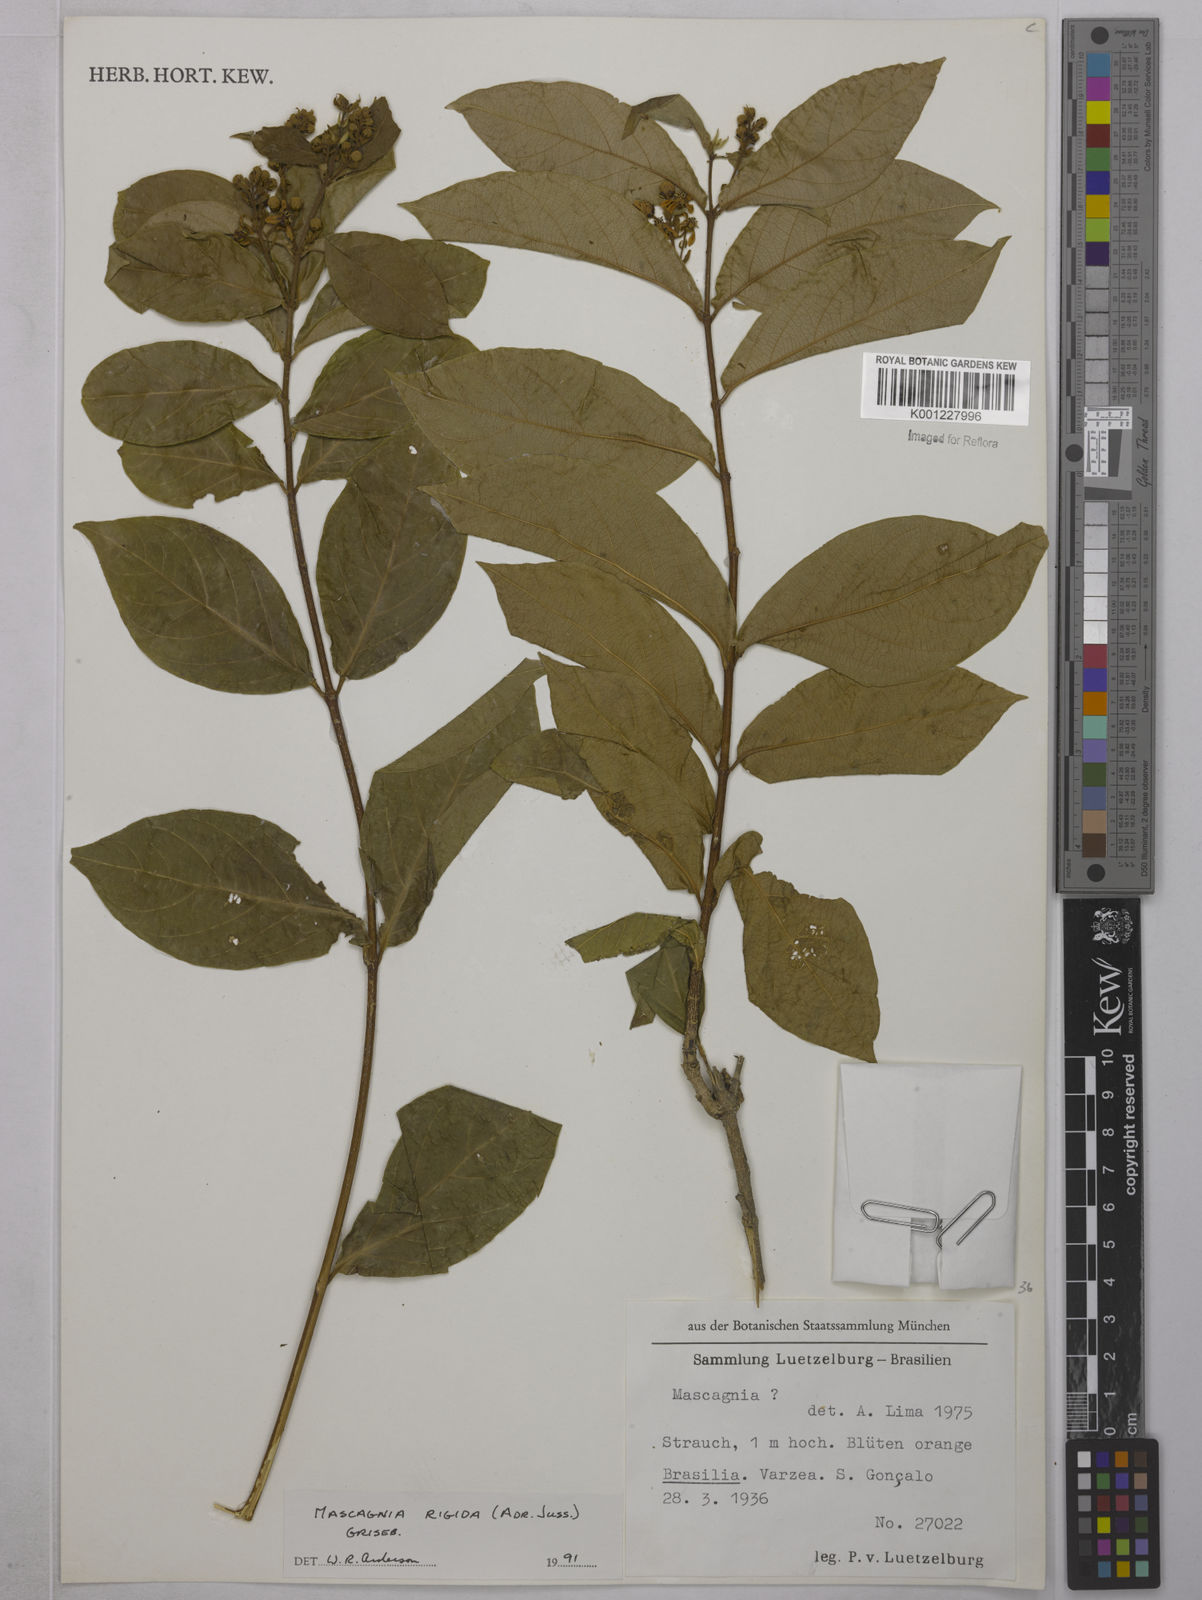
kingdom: Plantae
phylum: Tracheophyta
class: Magnoliopsida
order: Malpighiales
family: Malpighiaceae
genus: Amorimia
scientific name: Amorimia rigida
